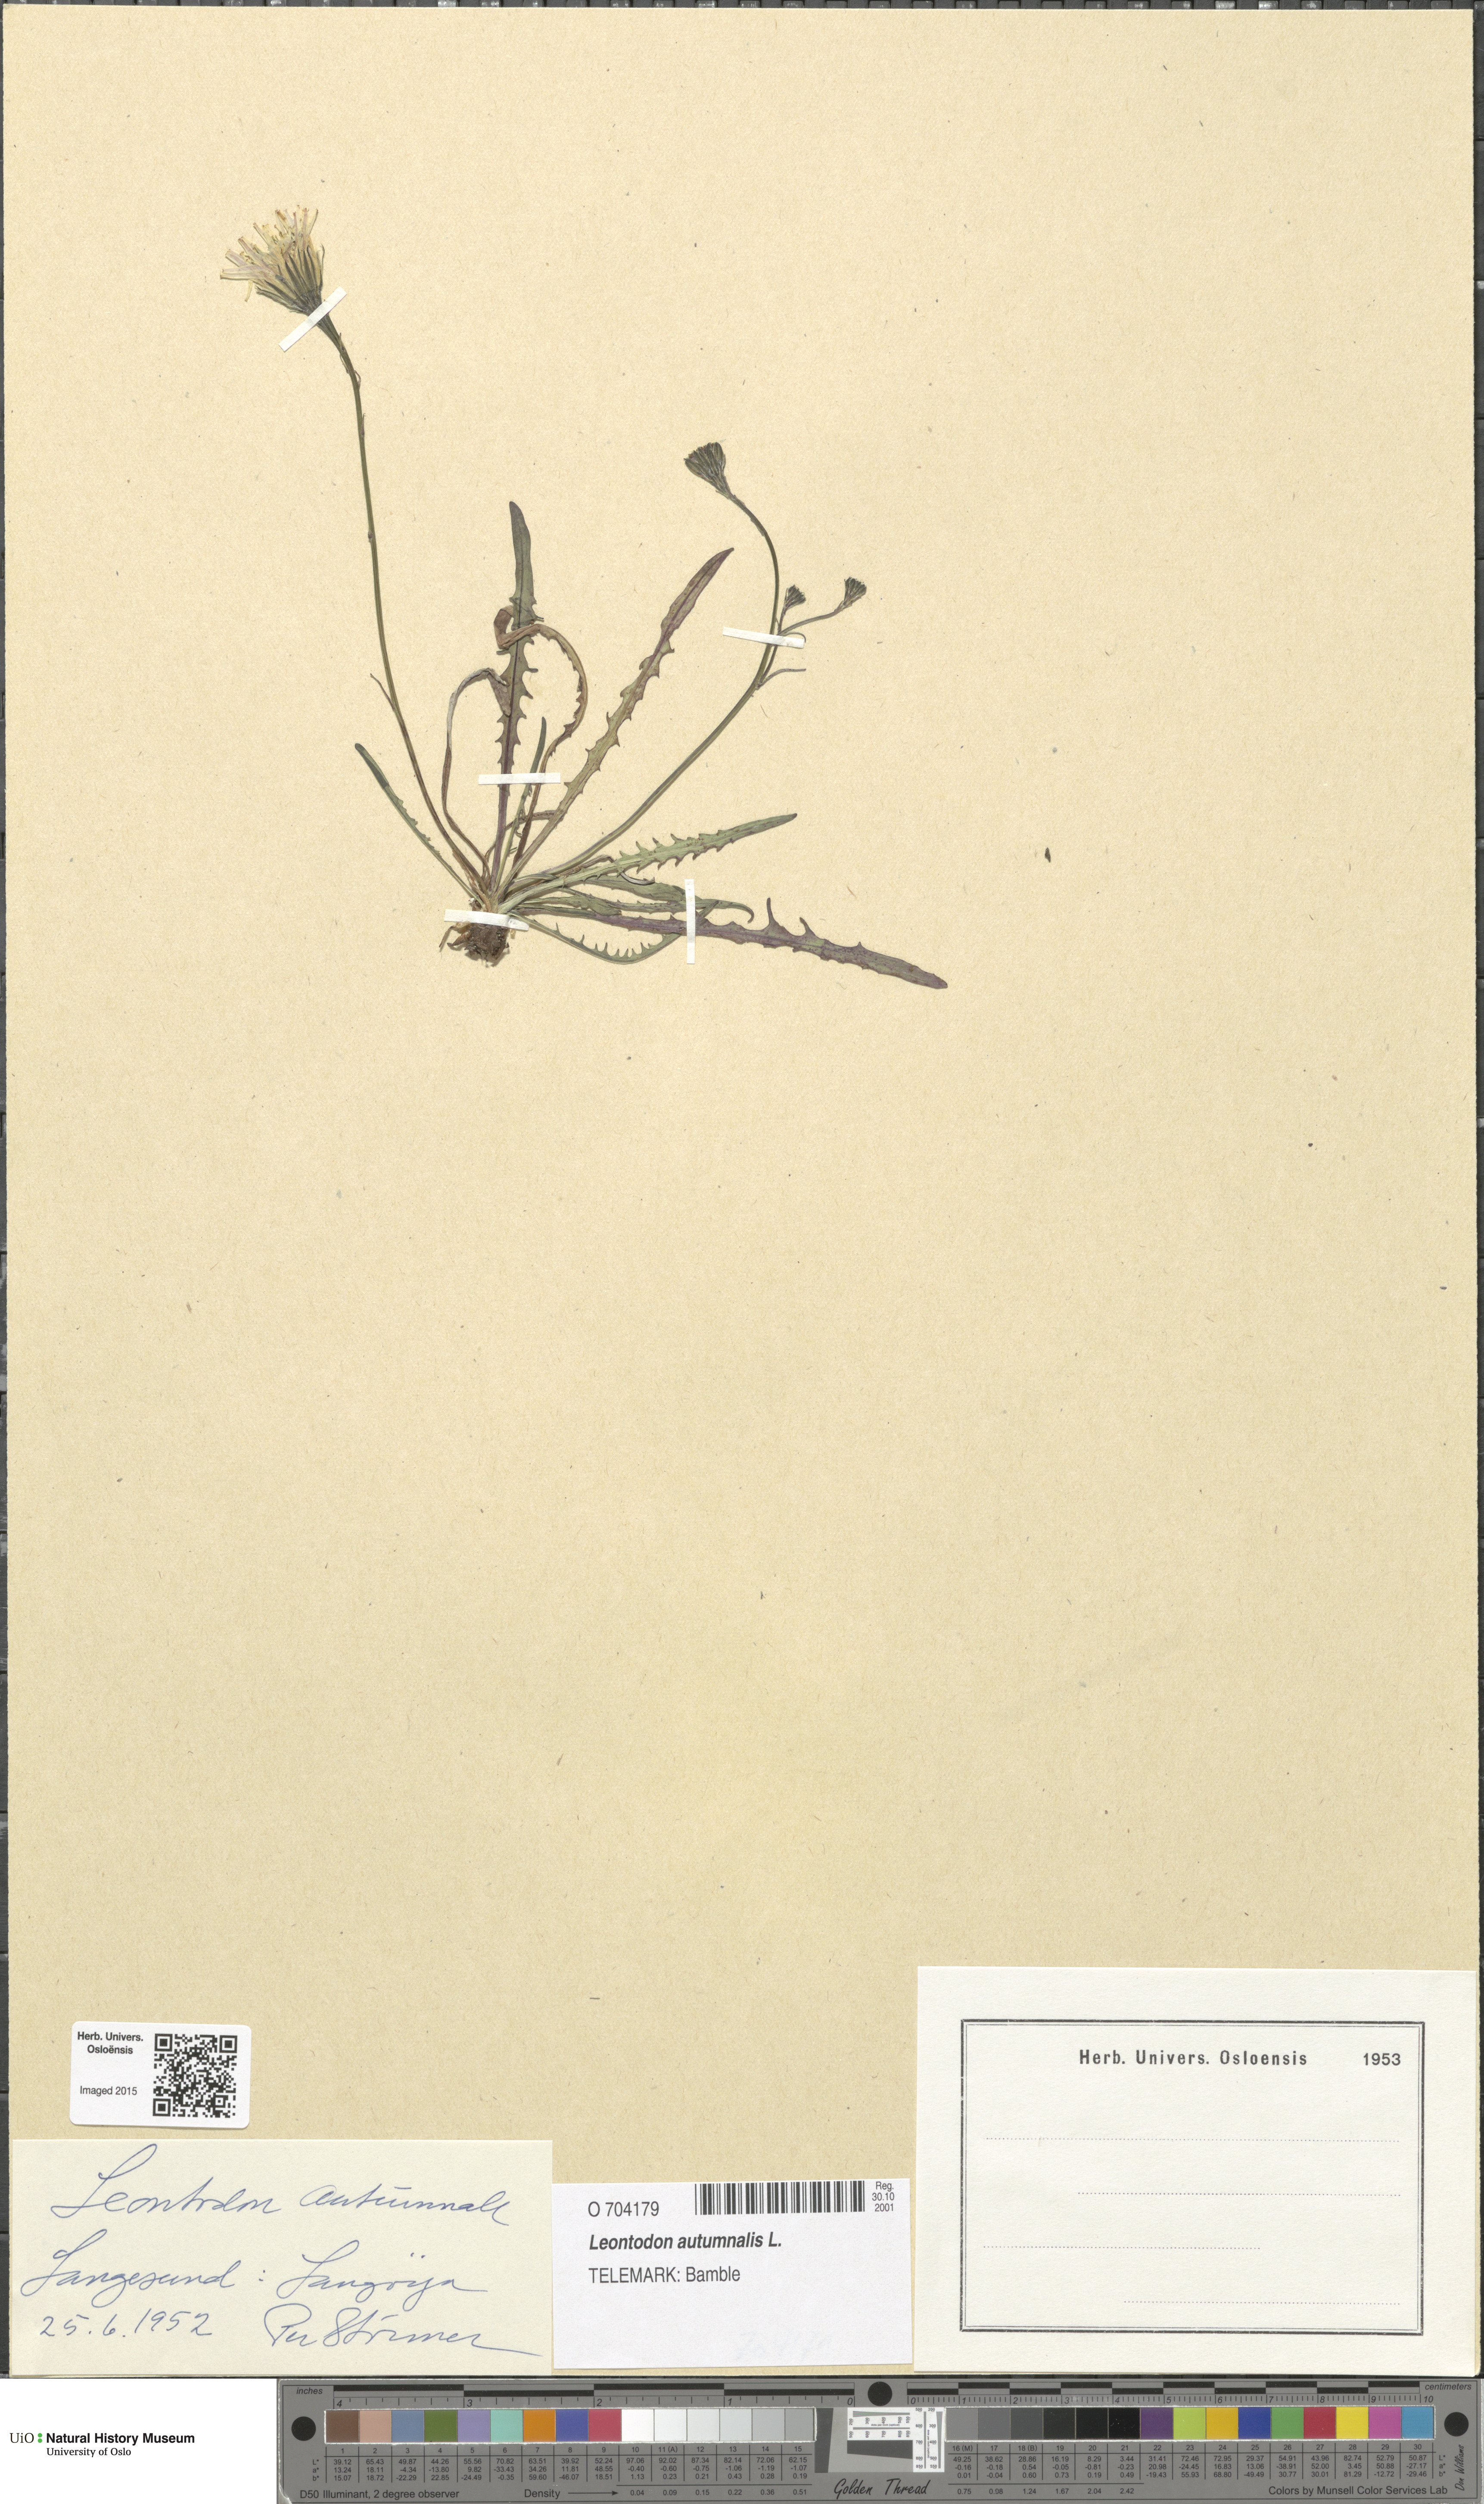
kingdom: Plantae
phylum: Tracheophyta
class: Magnoliopsida
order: Asterales
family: Asteraceae
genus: Scorzoneroides
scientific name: Scorzoneroides autumnalis
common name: Autumn hawkbit
